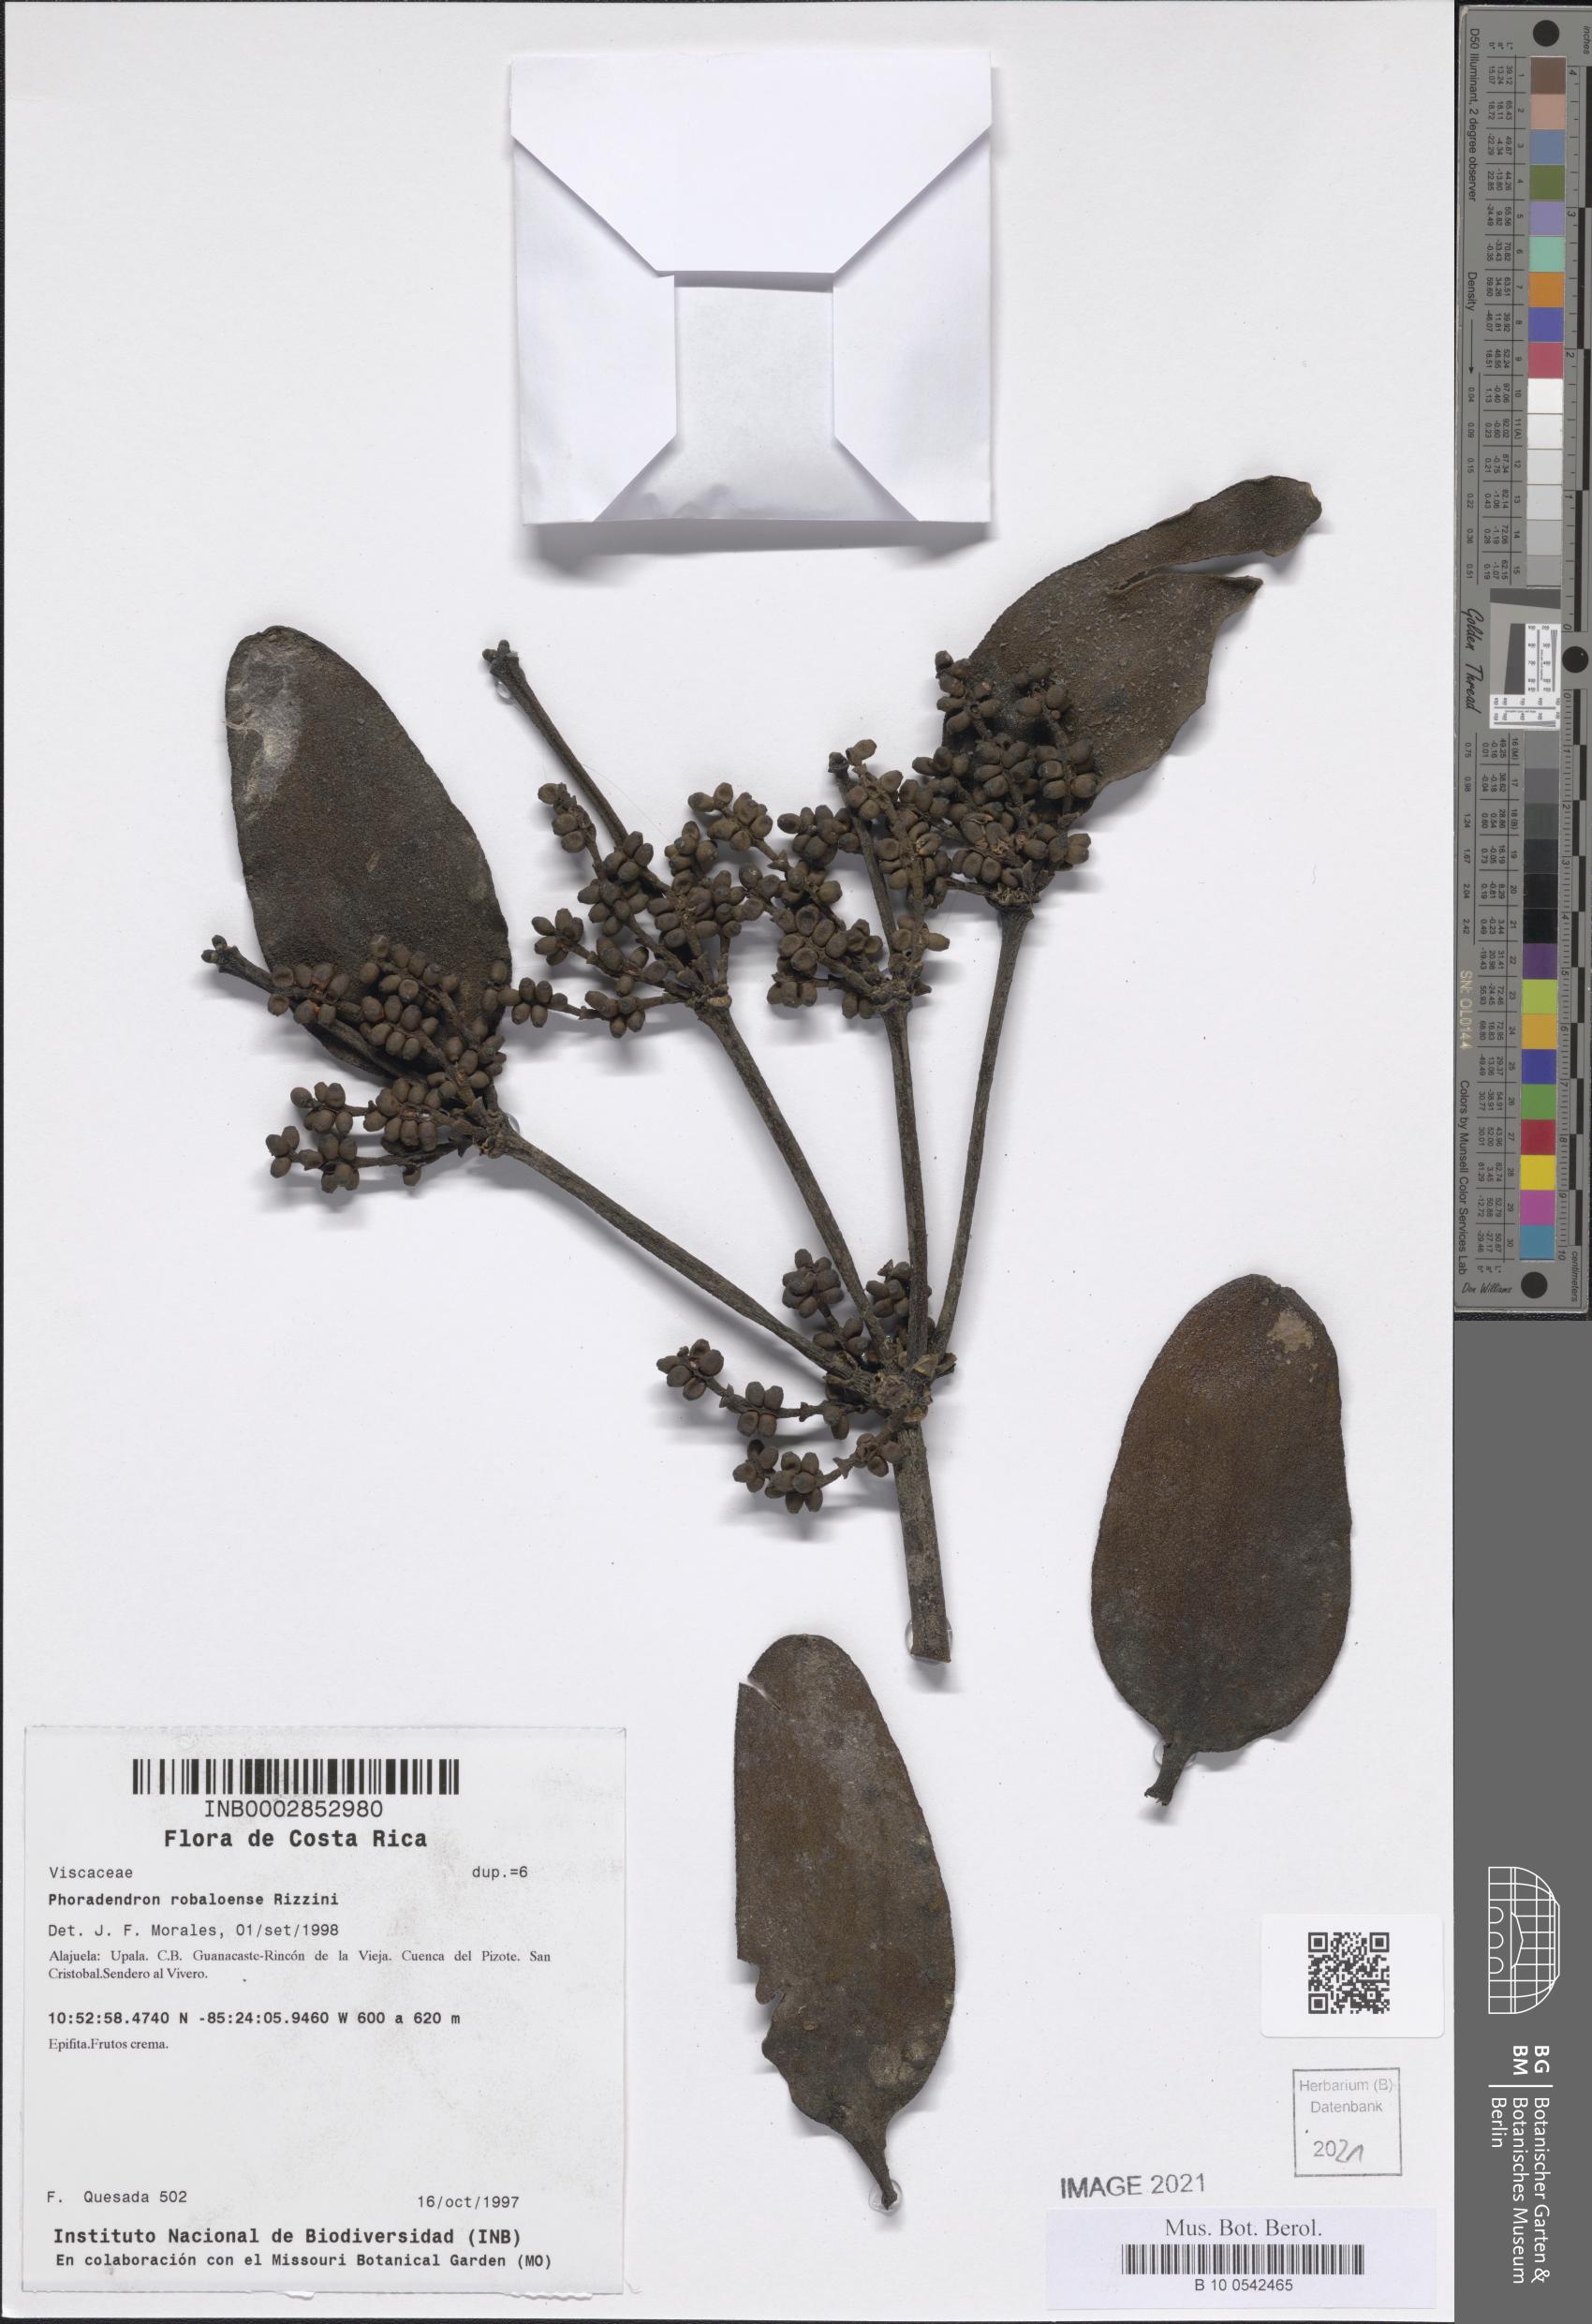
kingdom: Plantae
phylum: Tracheophyta
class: Magnoliopsida
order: Santalales
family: Viscaceae
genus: Phoradendron
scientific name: Phoradendron nitens
